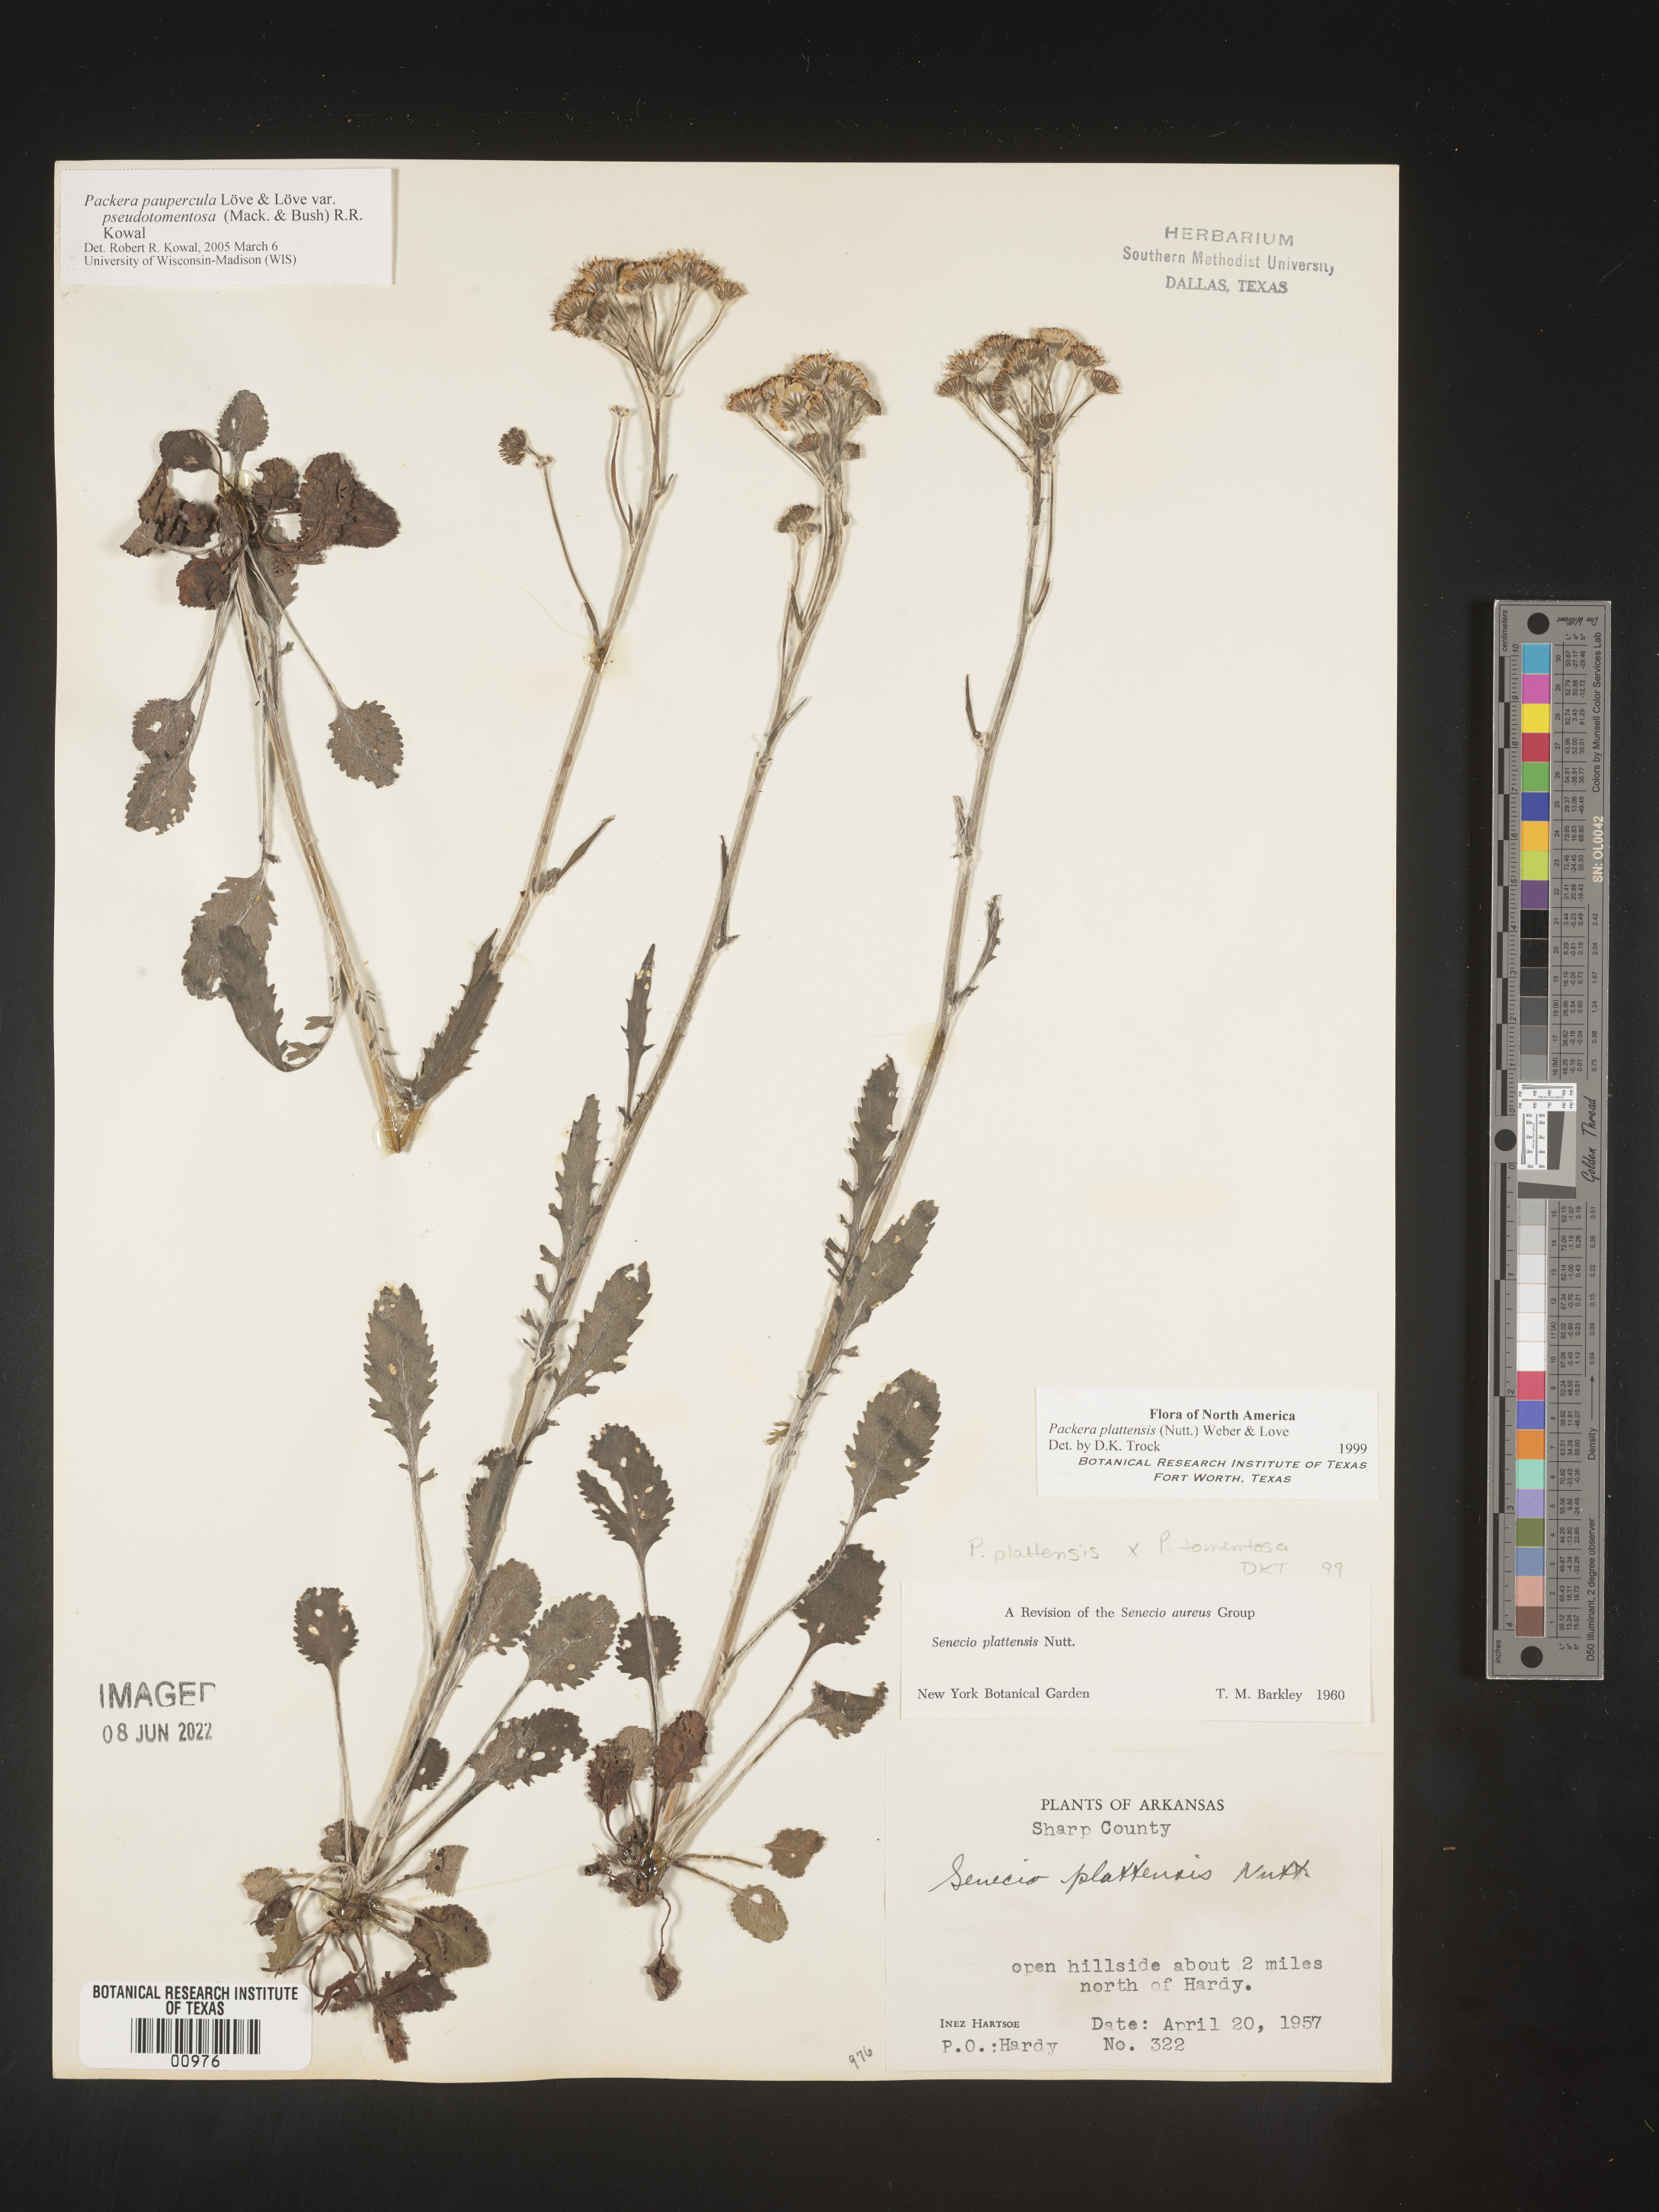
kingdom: Plantae
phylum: Tracheophyta
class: Magnoliopsida
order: Asterales
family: Asteraceae
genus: Packera
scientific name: Packera plattensis
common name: Prairie groundsel
